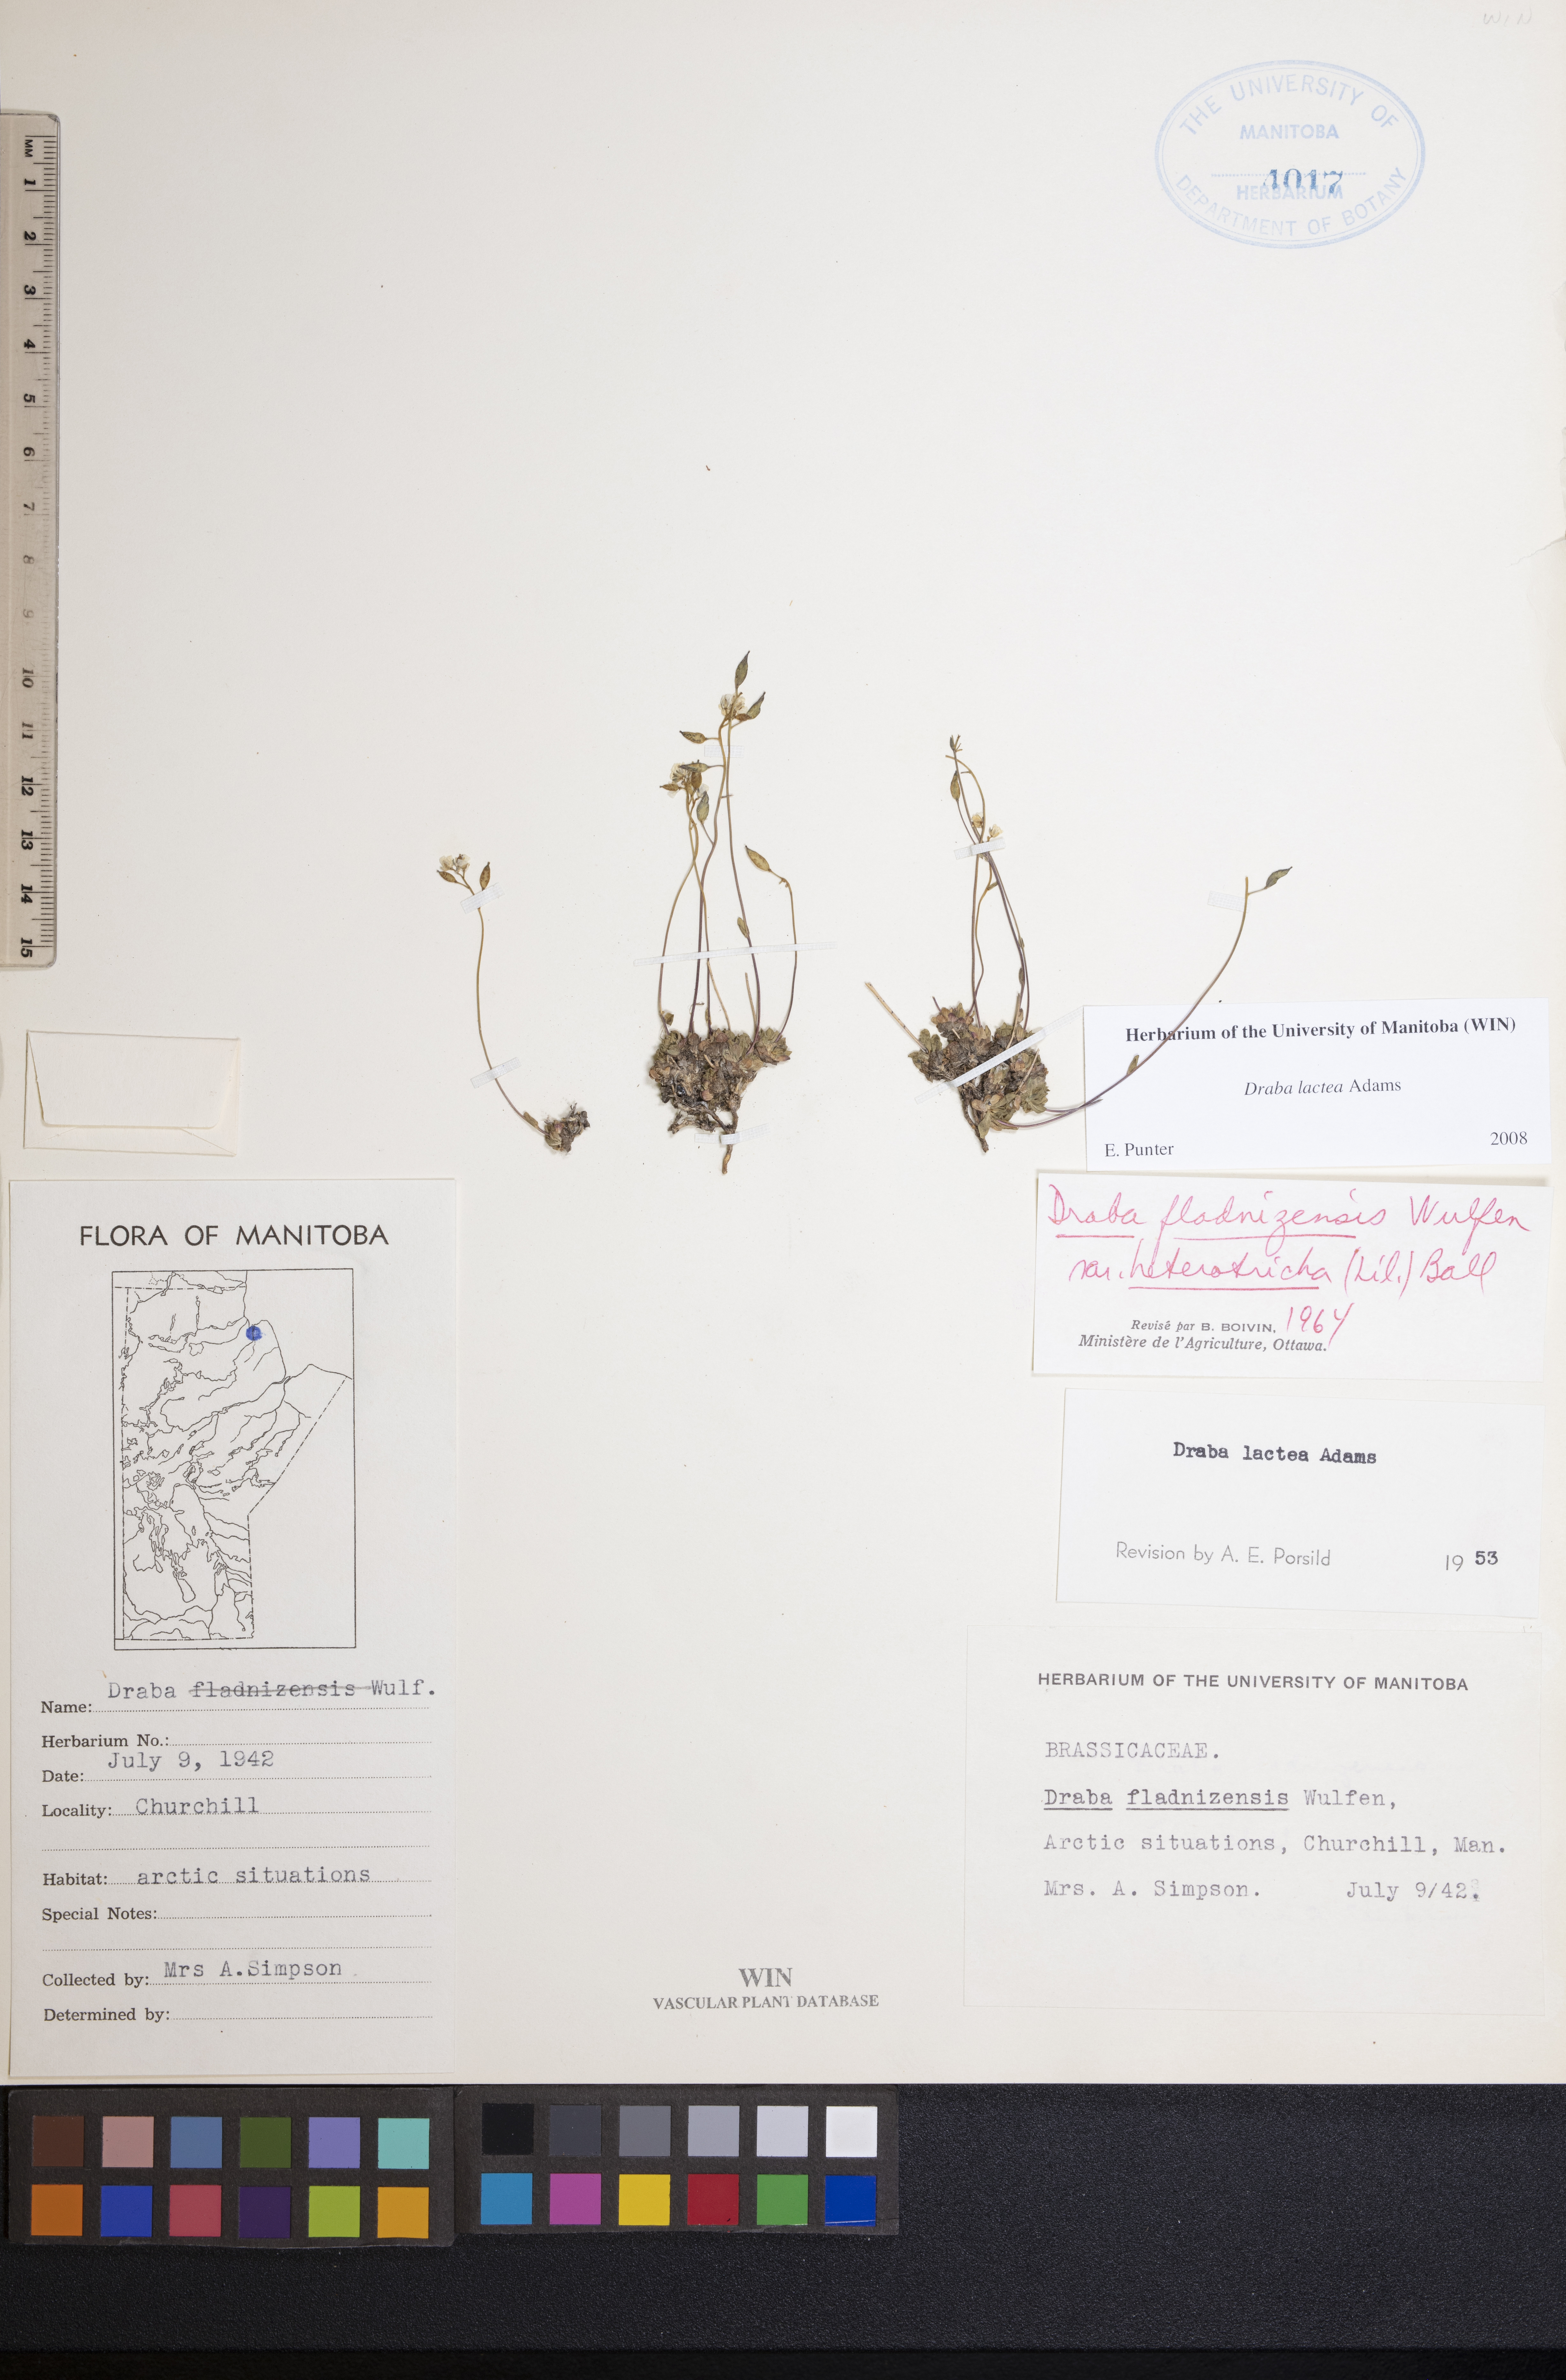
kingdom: Plantae
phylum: Tracheophyta
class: Magnoliopsida
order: Brassicales
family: Brassicaceae
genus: Draba
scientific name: Draba lactea
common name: Milky draba
